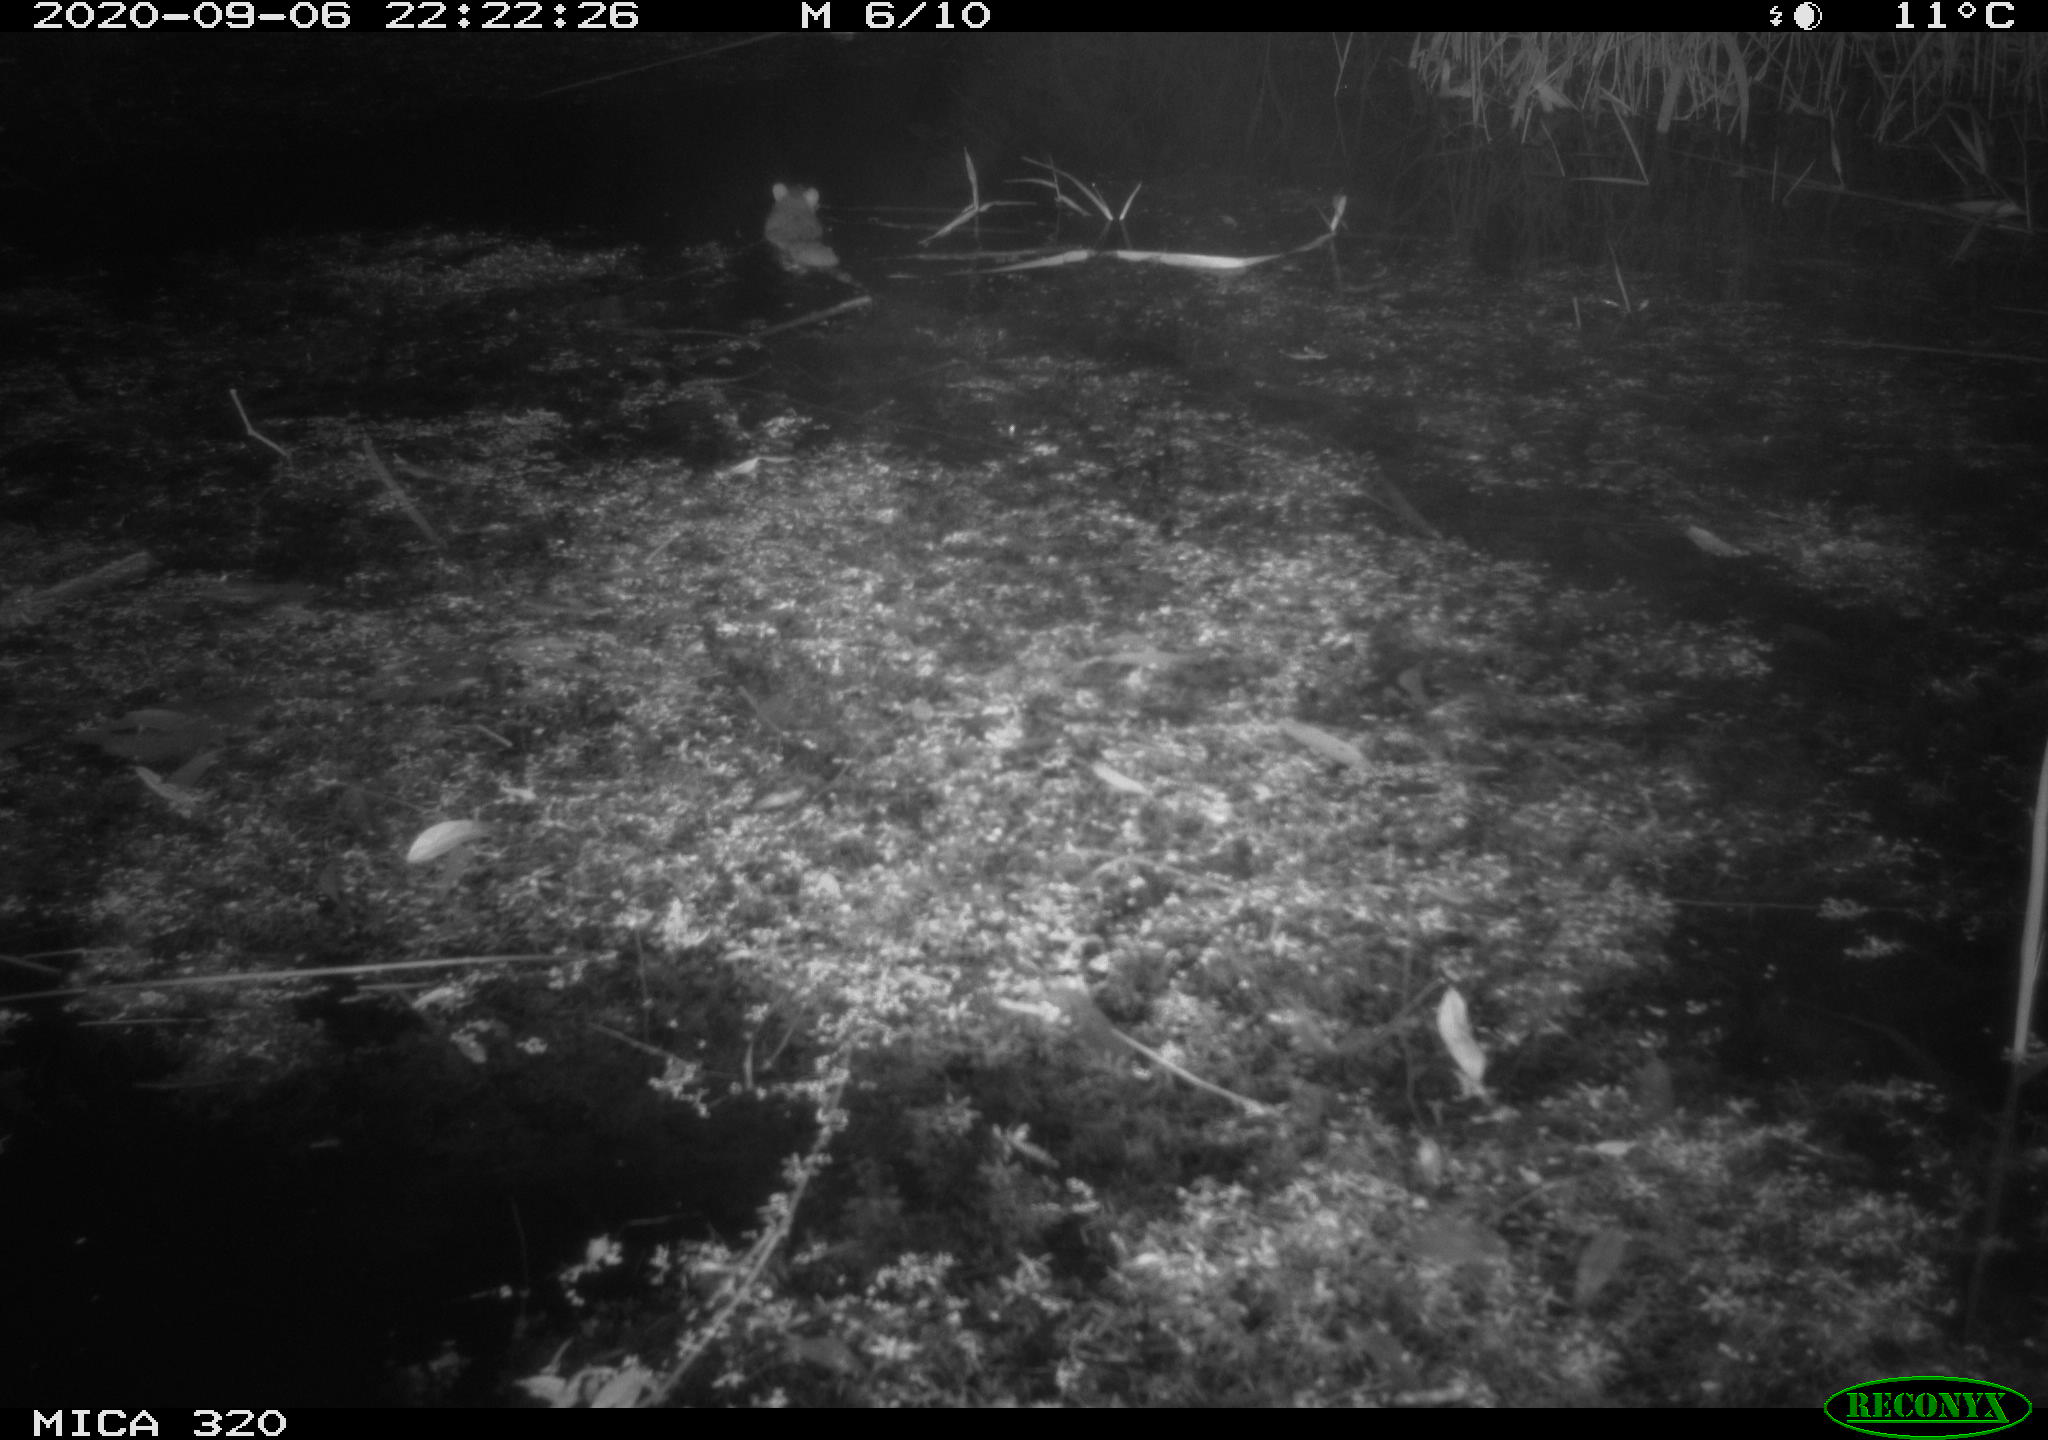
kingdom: Animalia
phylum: Chordata
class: Mammalia
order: Rodentia
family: Muridae
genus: Rattus
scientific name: Rattus norvegicus
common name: Brown rat
